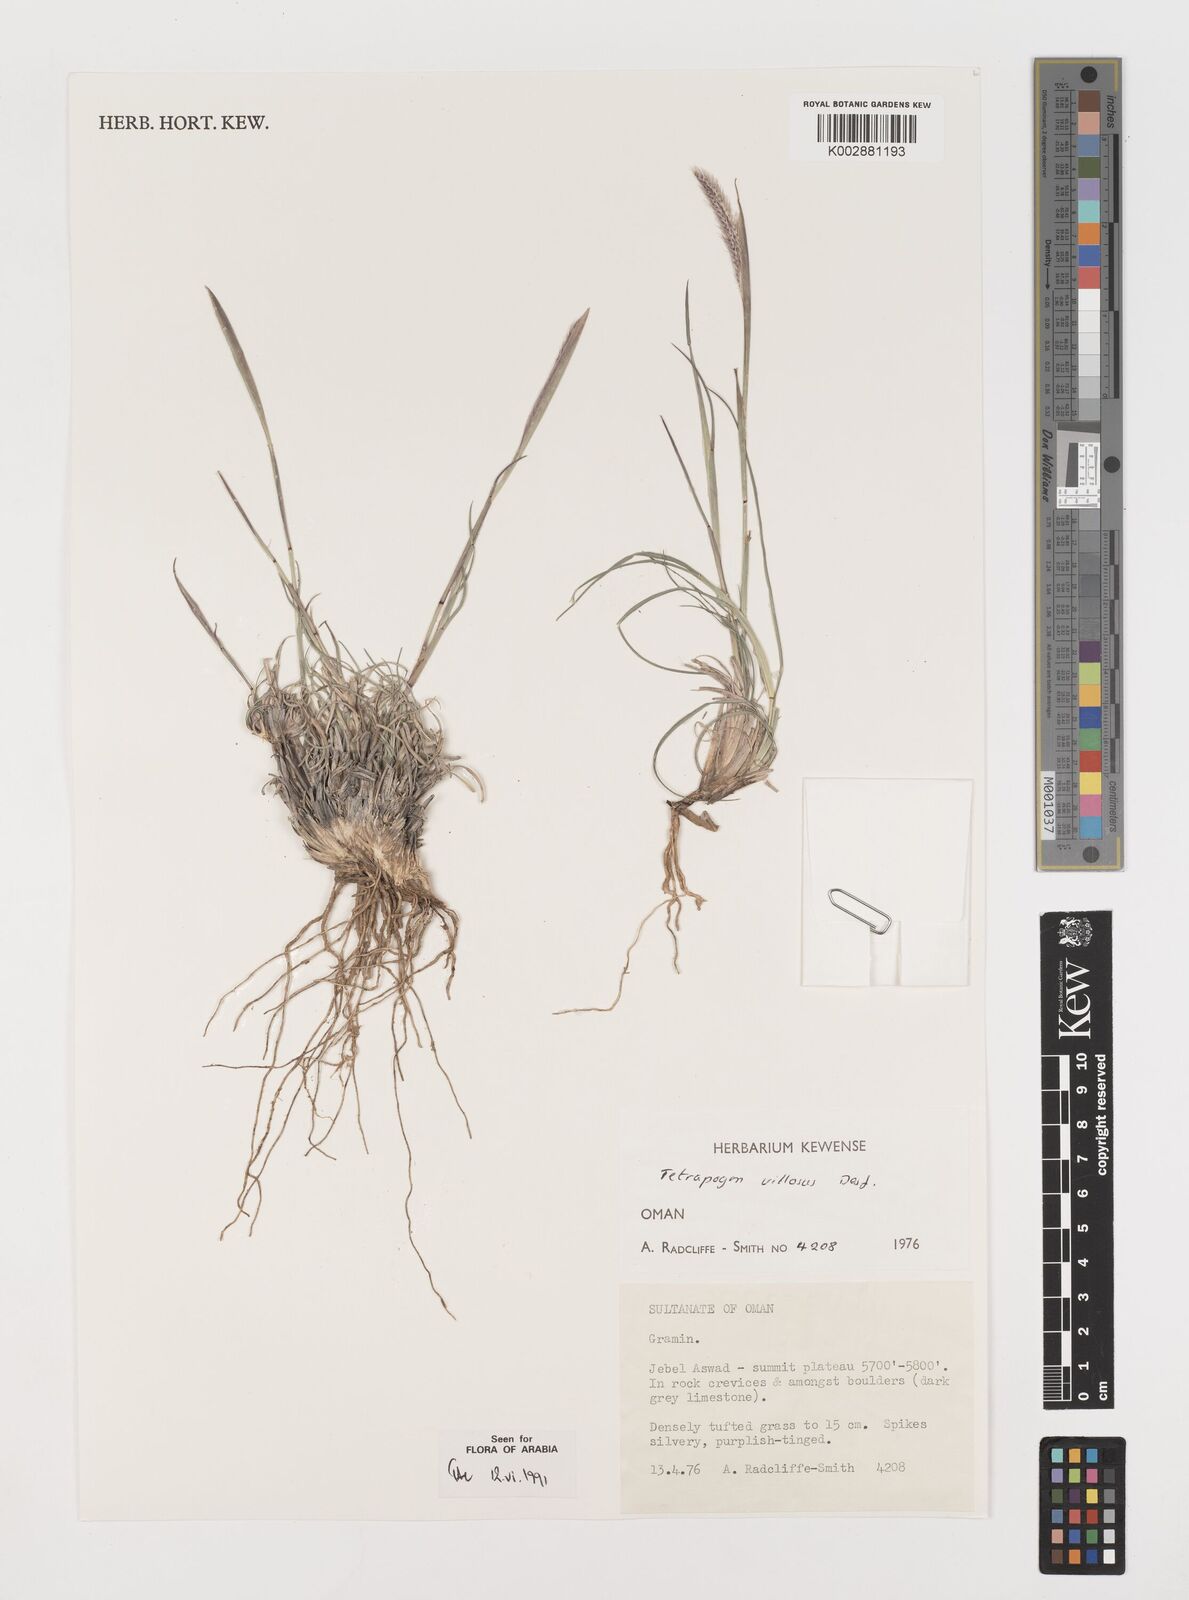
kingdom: Plantae
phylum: Tracheophyta
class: Liliopsida
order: Poales
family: Poaceae
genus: Tetrapogon
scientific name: Tetrapogon villosus
